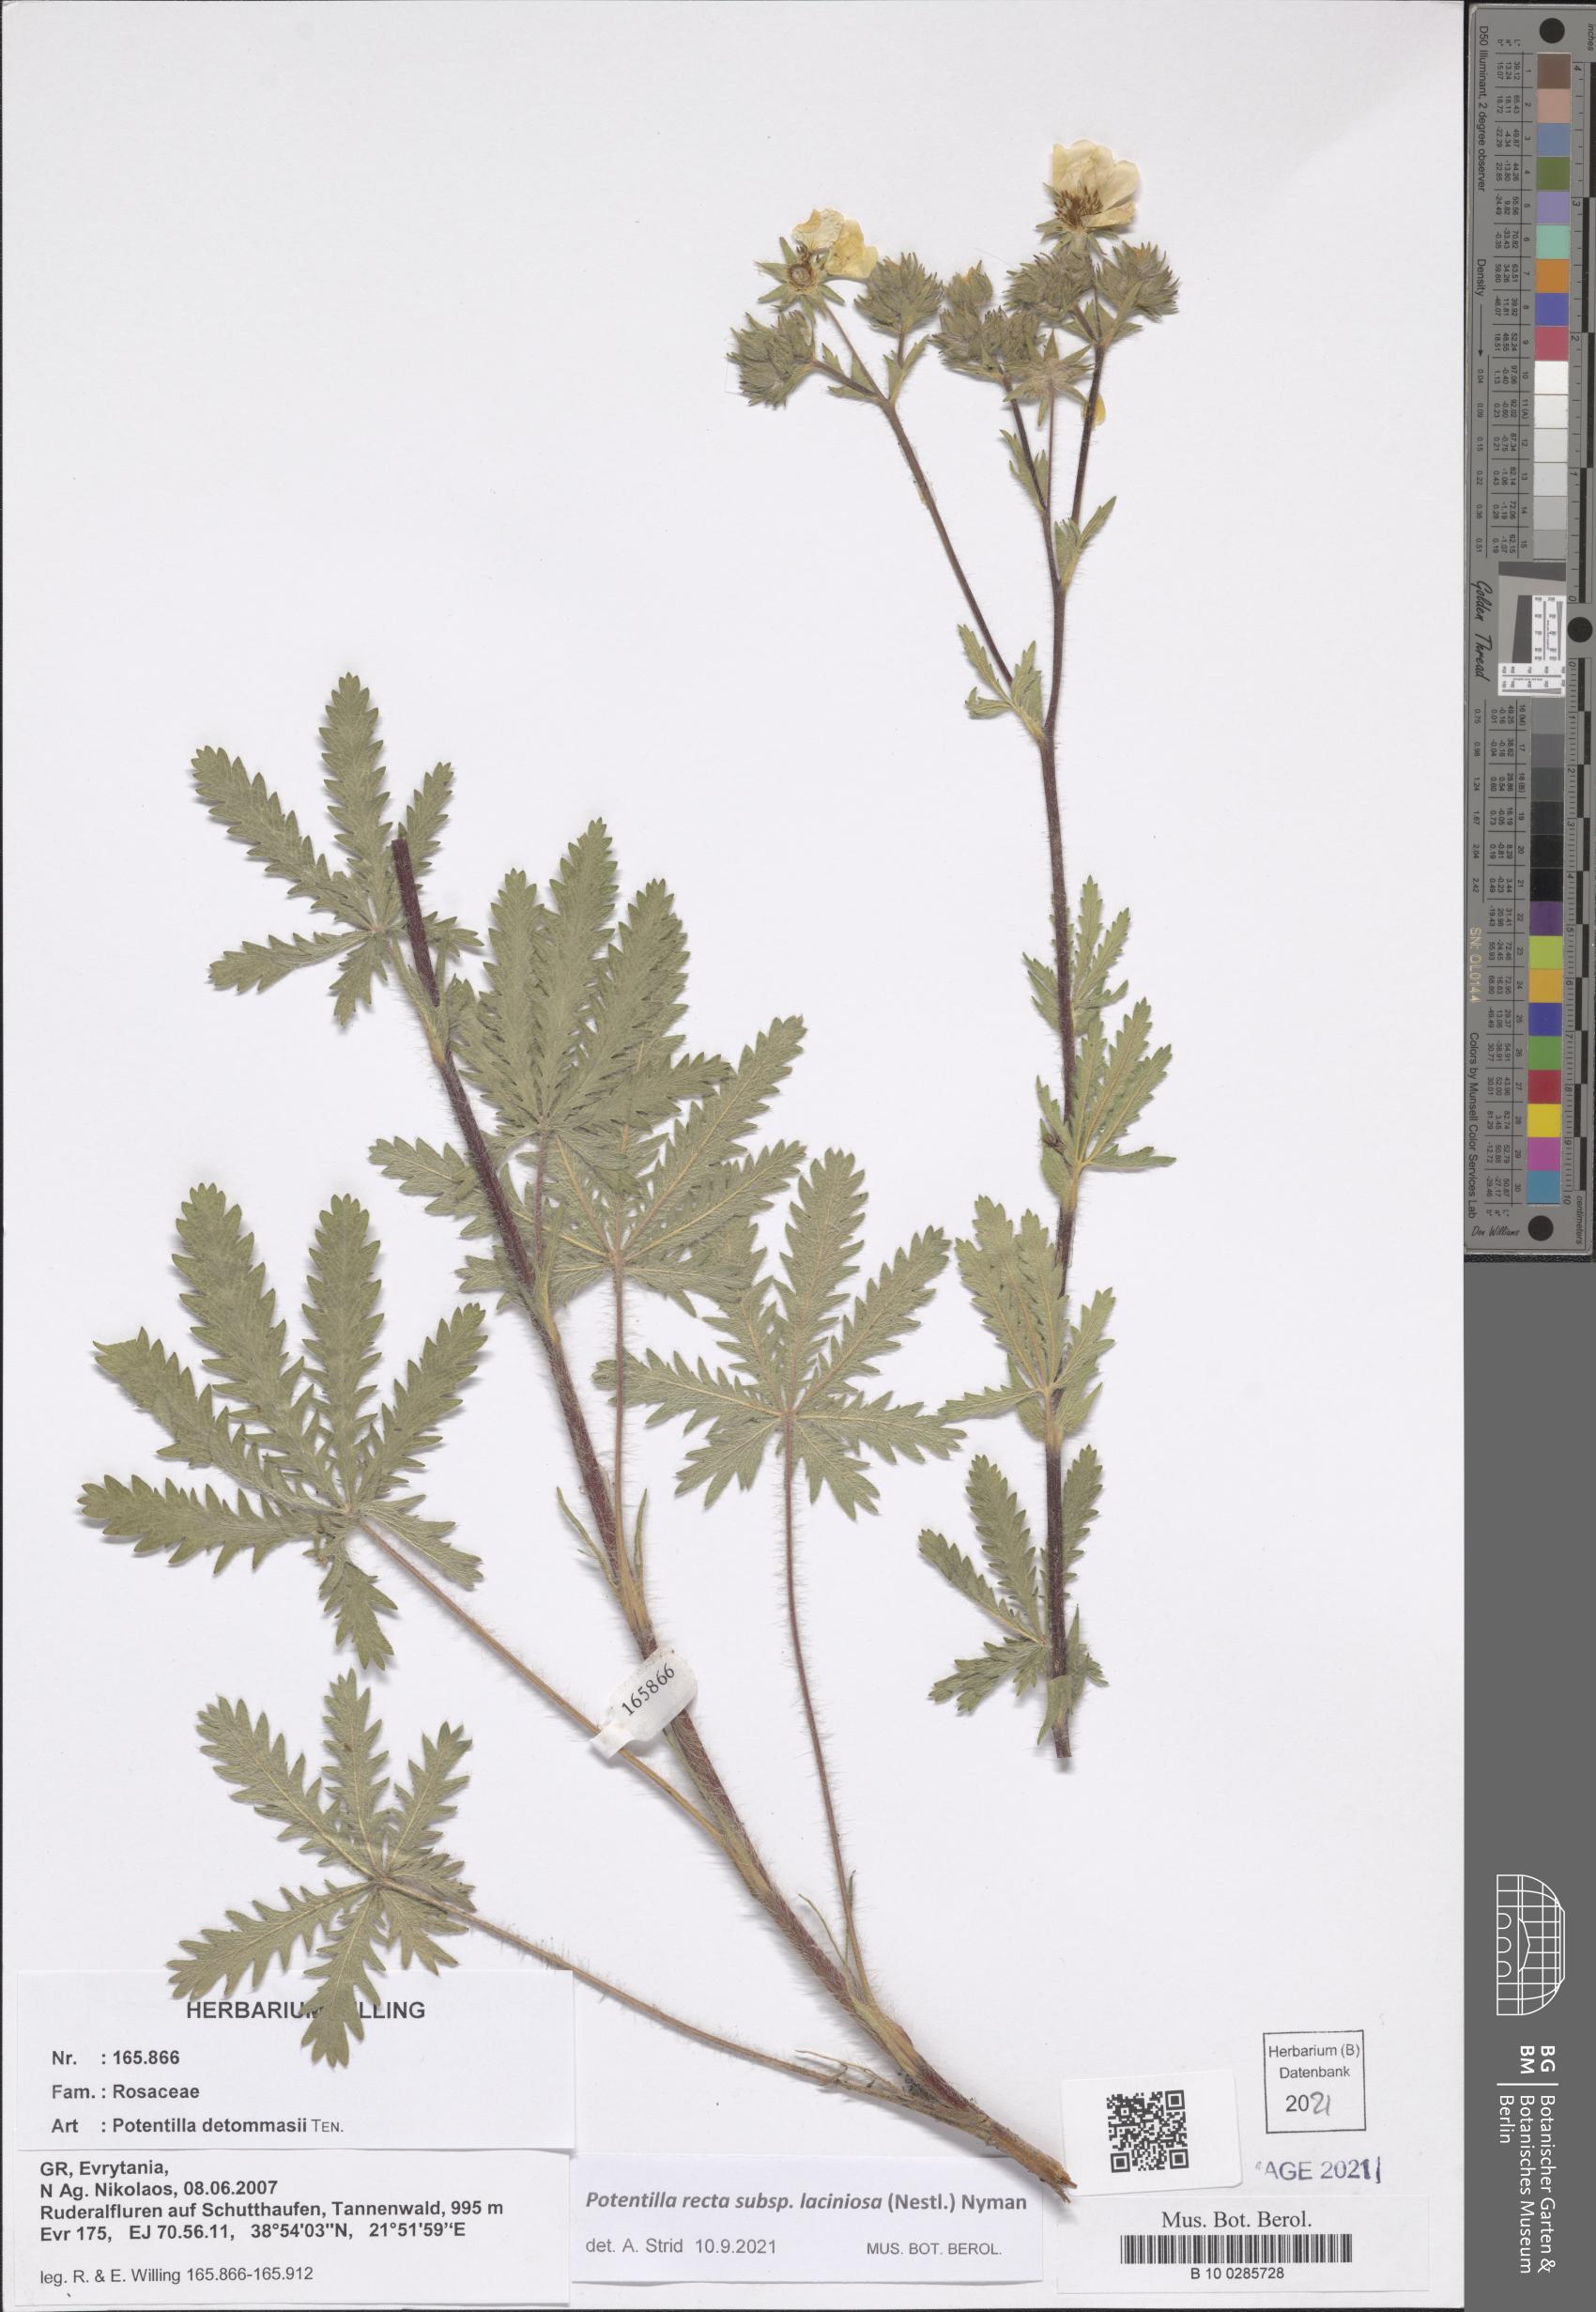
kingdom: Plantae
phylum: Tracheophyta
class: Magnoliopsida
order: Rosales
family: Rosaceae
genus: Potentilla
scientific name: Potentilla recta
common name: Sulphur cinquefoil
